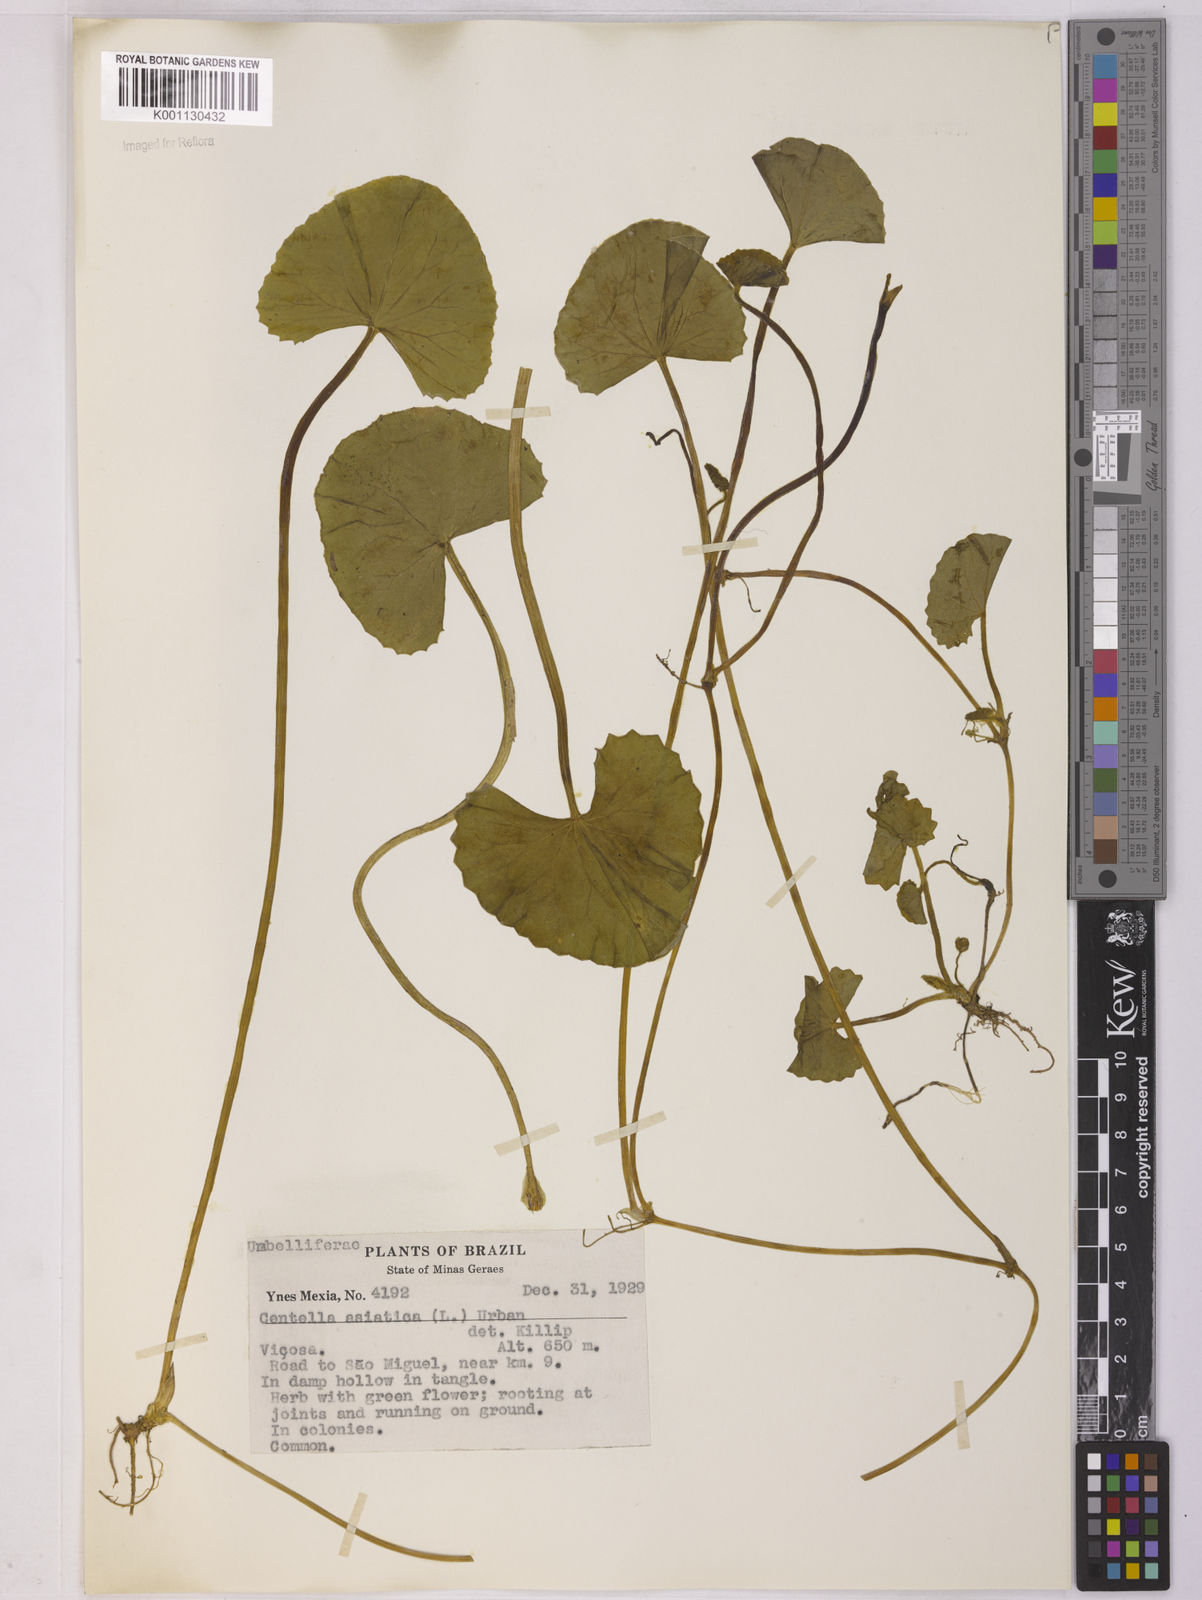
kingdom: Plantae
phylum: Tracheophyta
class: Magnoliopsida
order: Apiales
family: Apiaceae
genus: Centella
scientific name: Centella erecta
